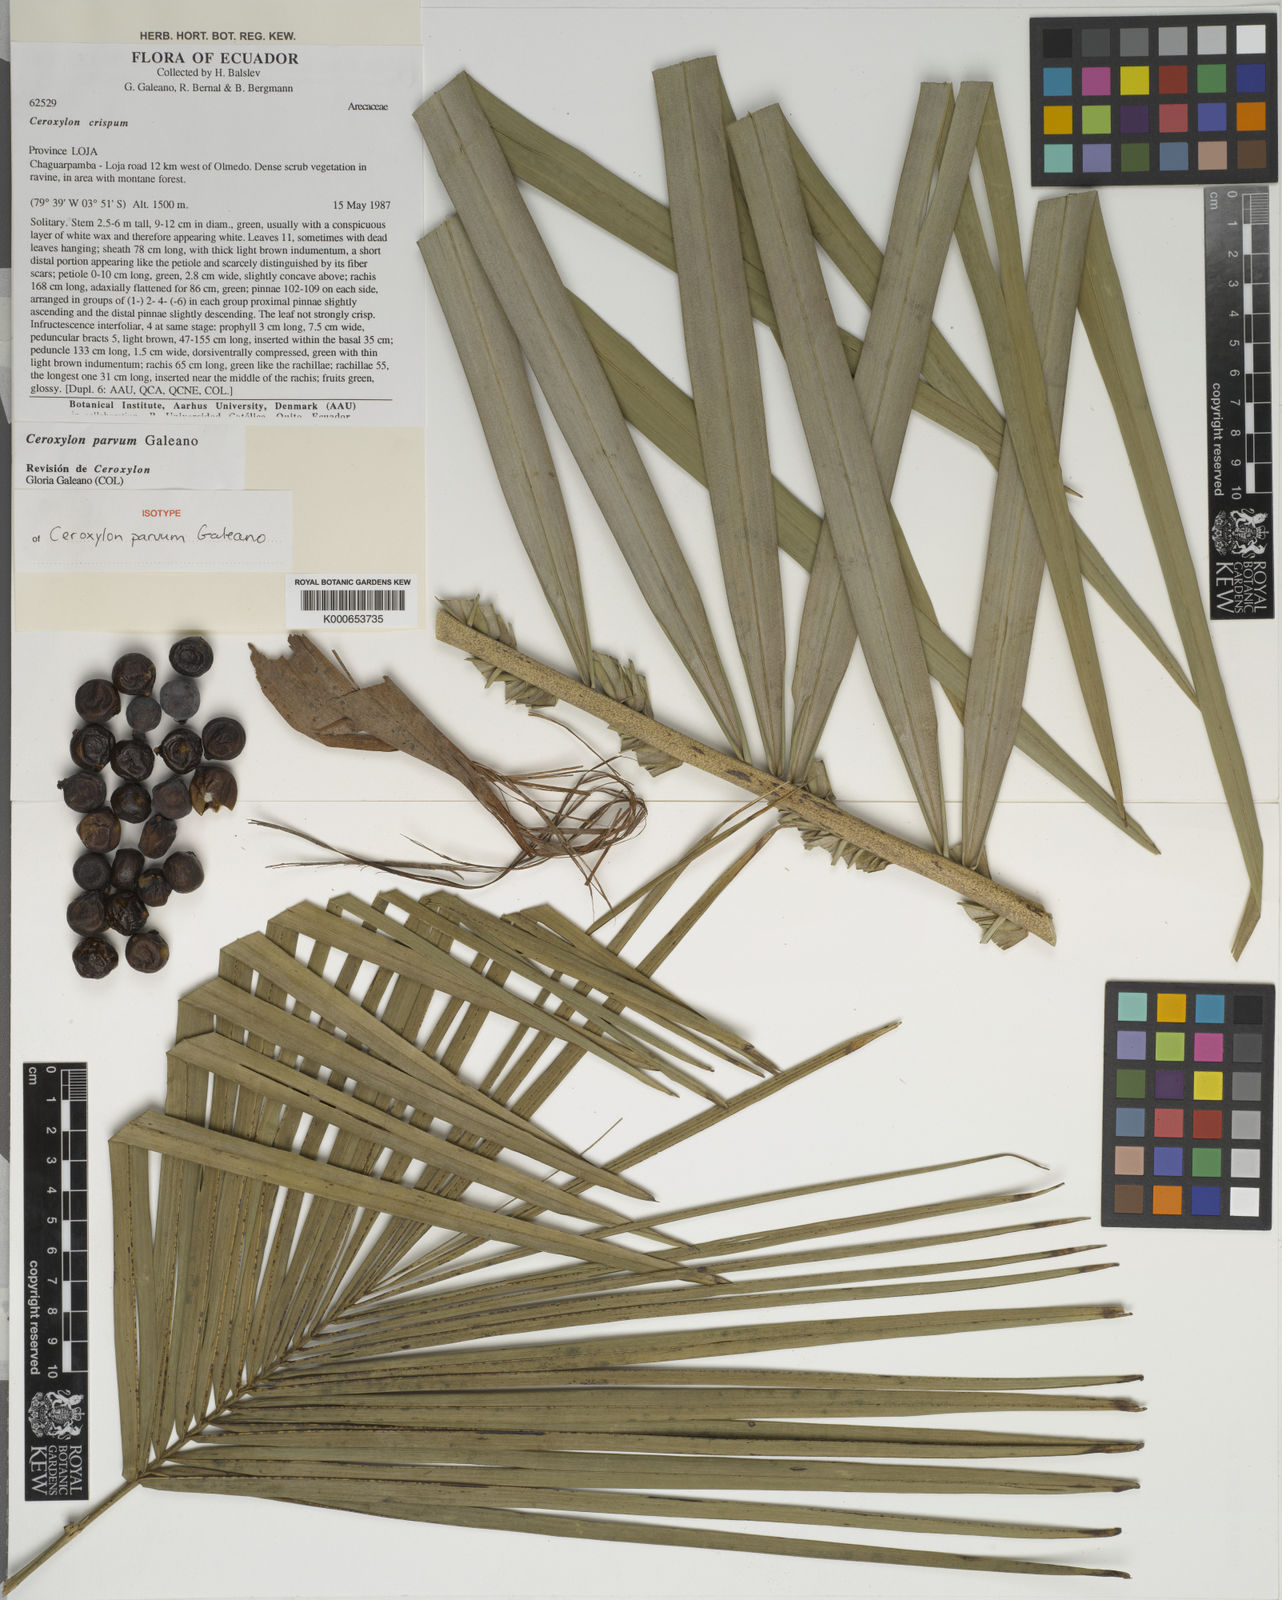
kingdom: Plantae
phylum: Tracheophyta
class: Liliopsida
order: Arecales
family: Arecaceae
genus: Ceroxylon
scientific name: Ceroxylon parvum
